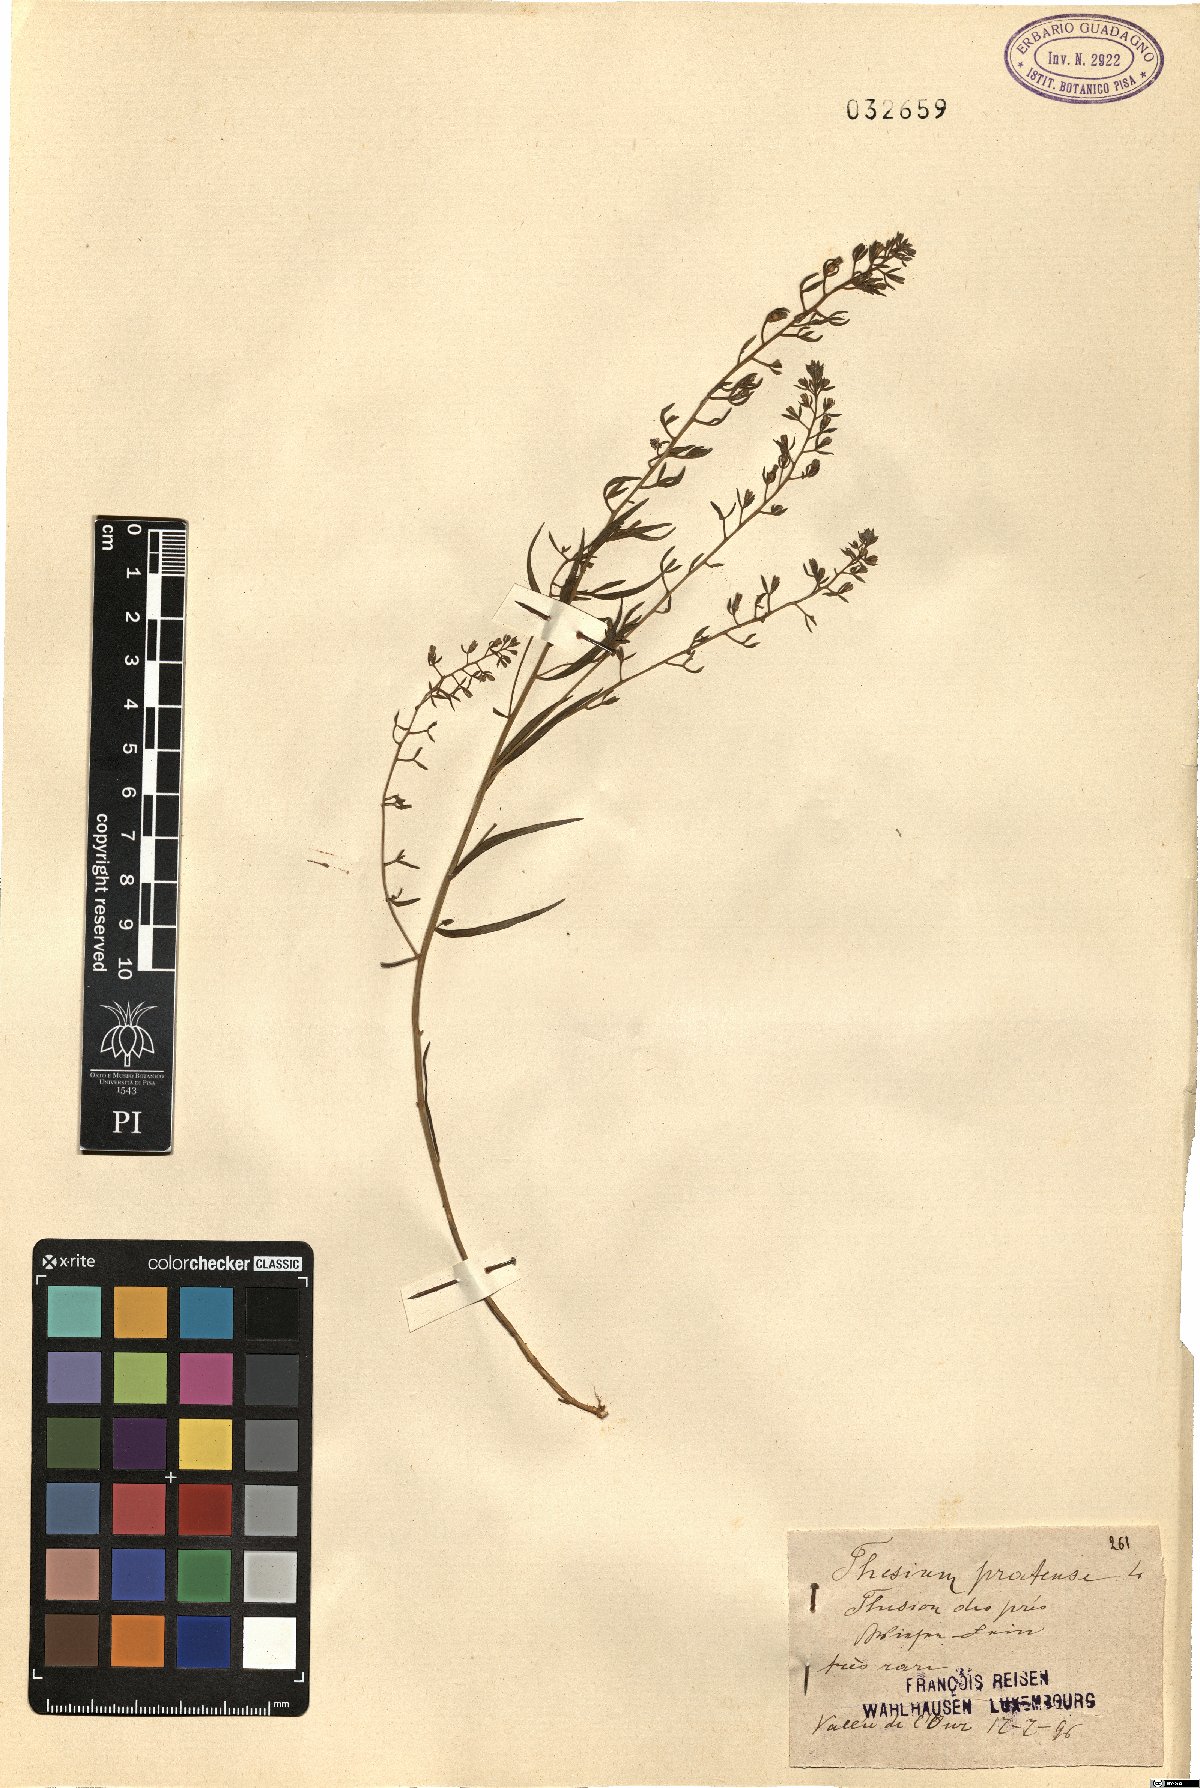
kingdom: Plantae
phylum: Tracheophyta
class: Magnoliopsida
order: Santalales
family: Thesiaceae
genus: Thesium
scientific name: Thesium pyrenaicum
